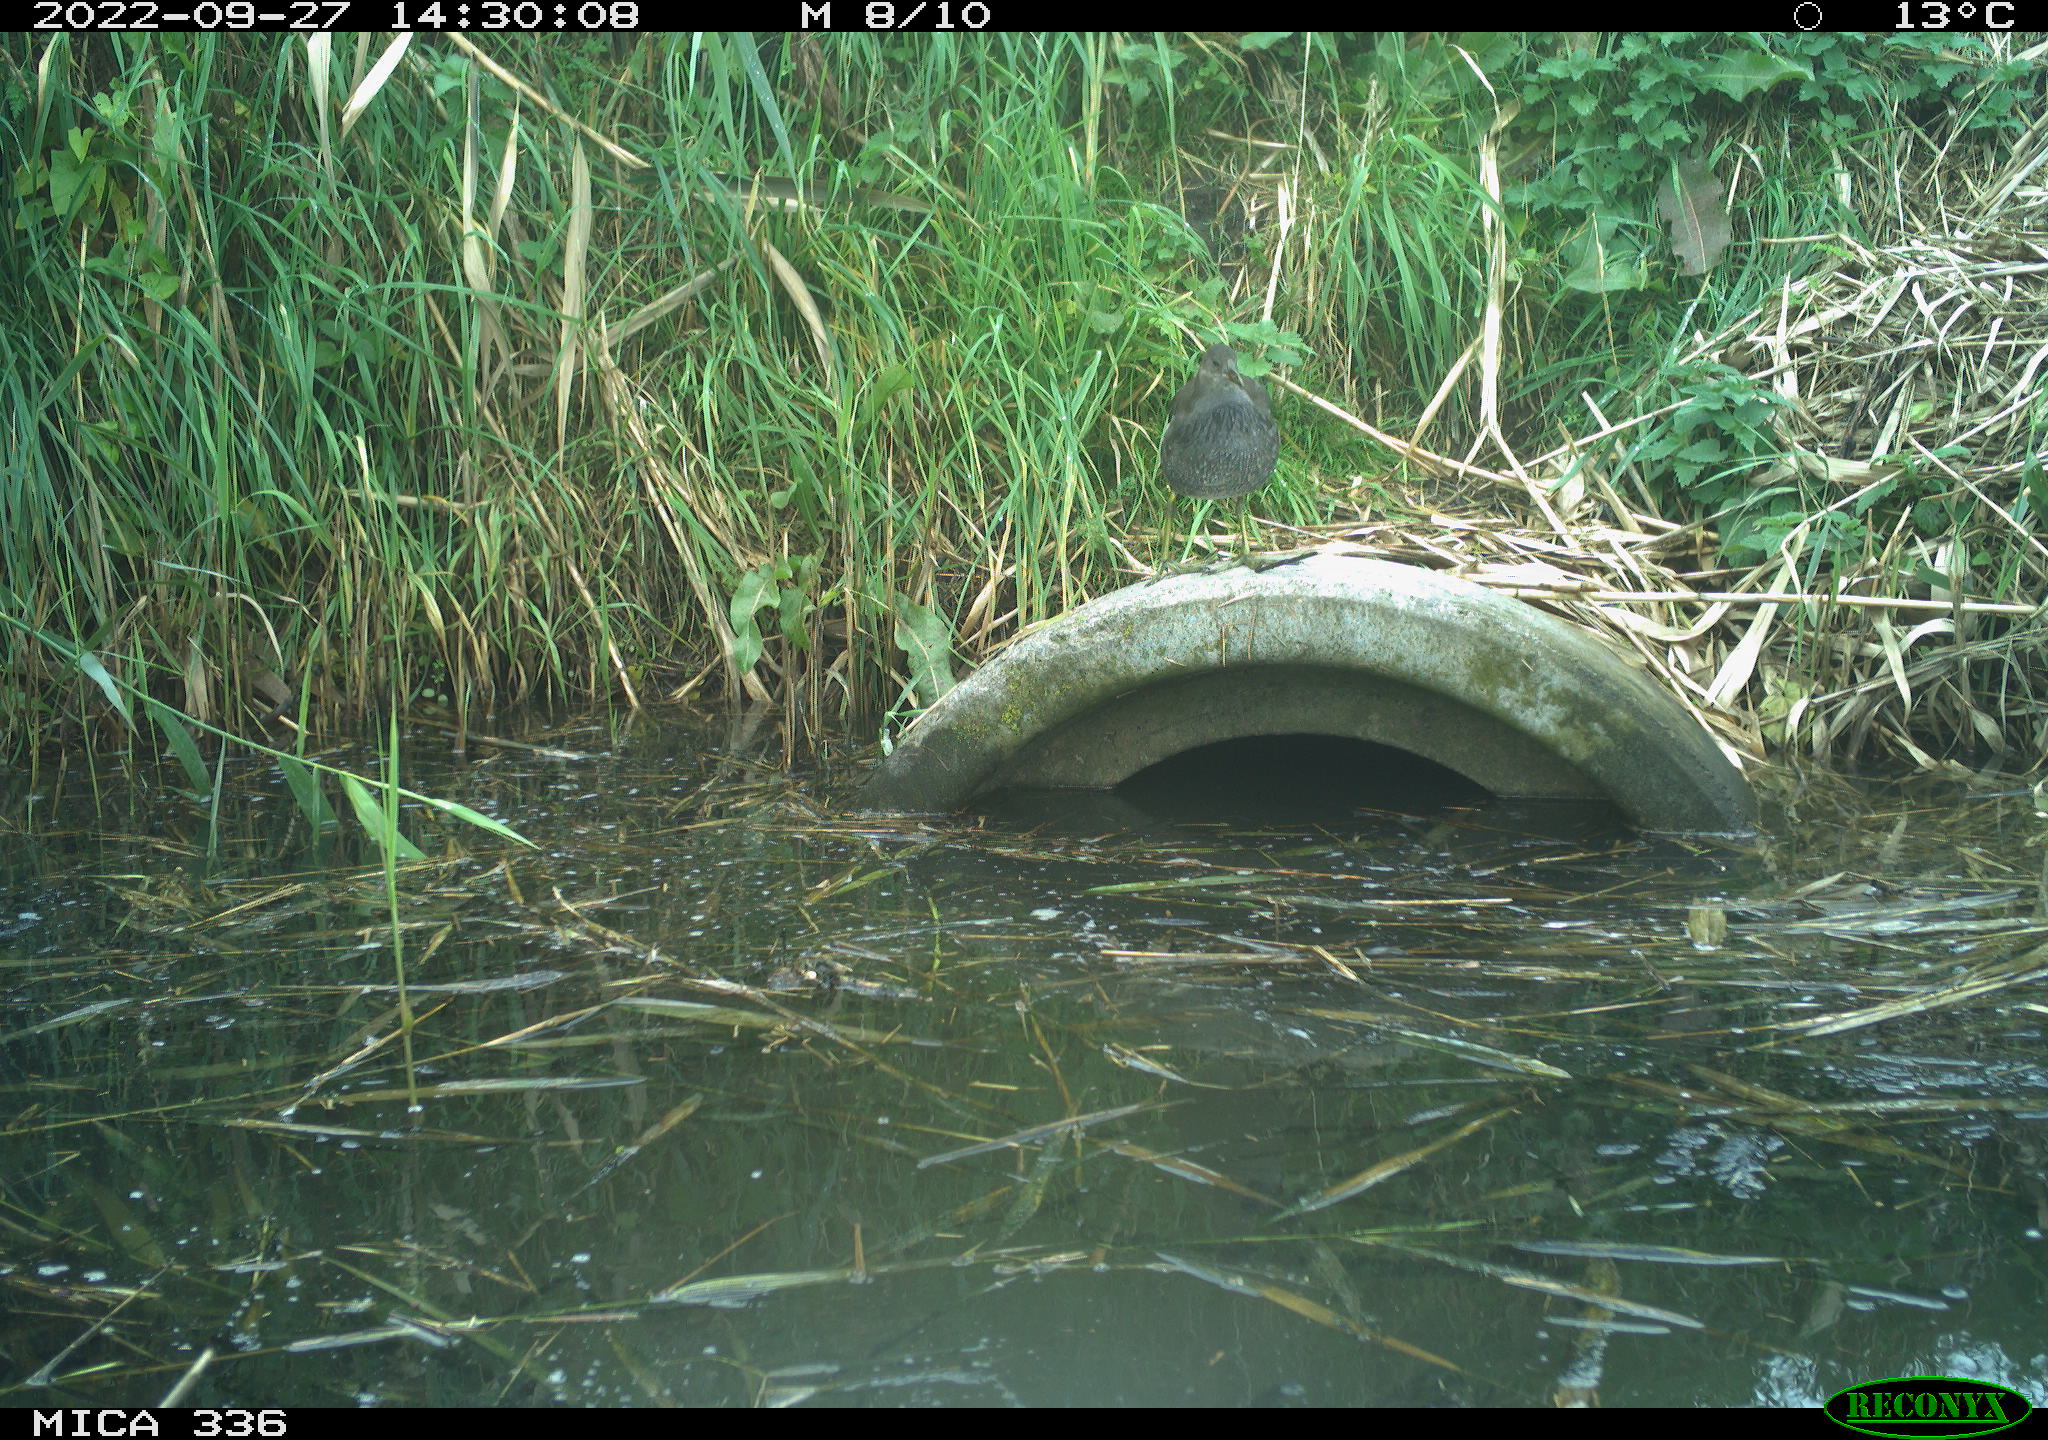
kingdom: Animalia
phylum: Chordata
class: Aves
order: Gruiformes
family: Rallidae
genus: Gallinula
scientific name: Gallinula chloropus
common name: Common moorhen
